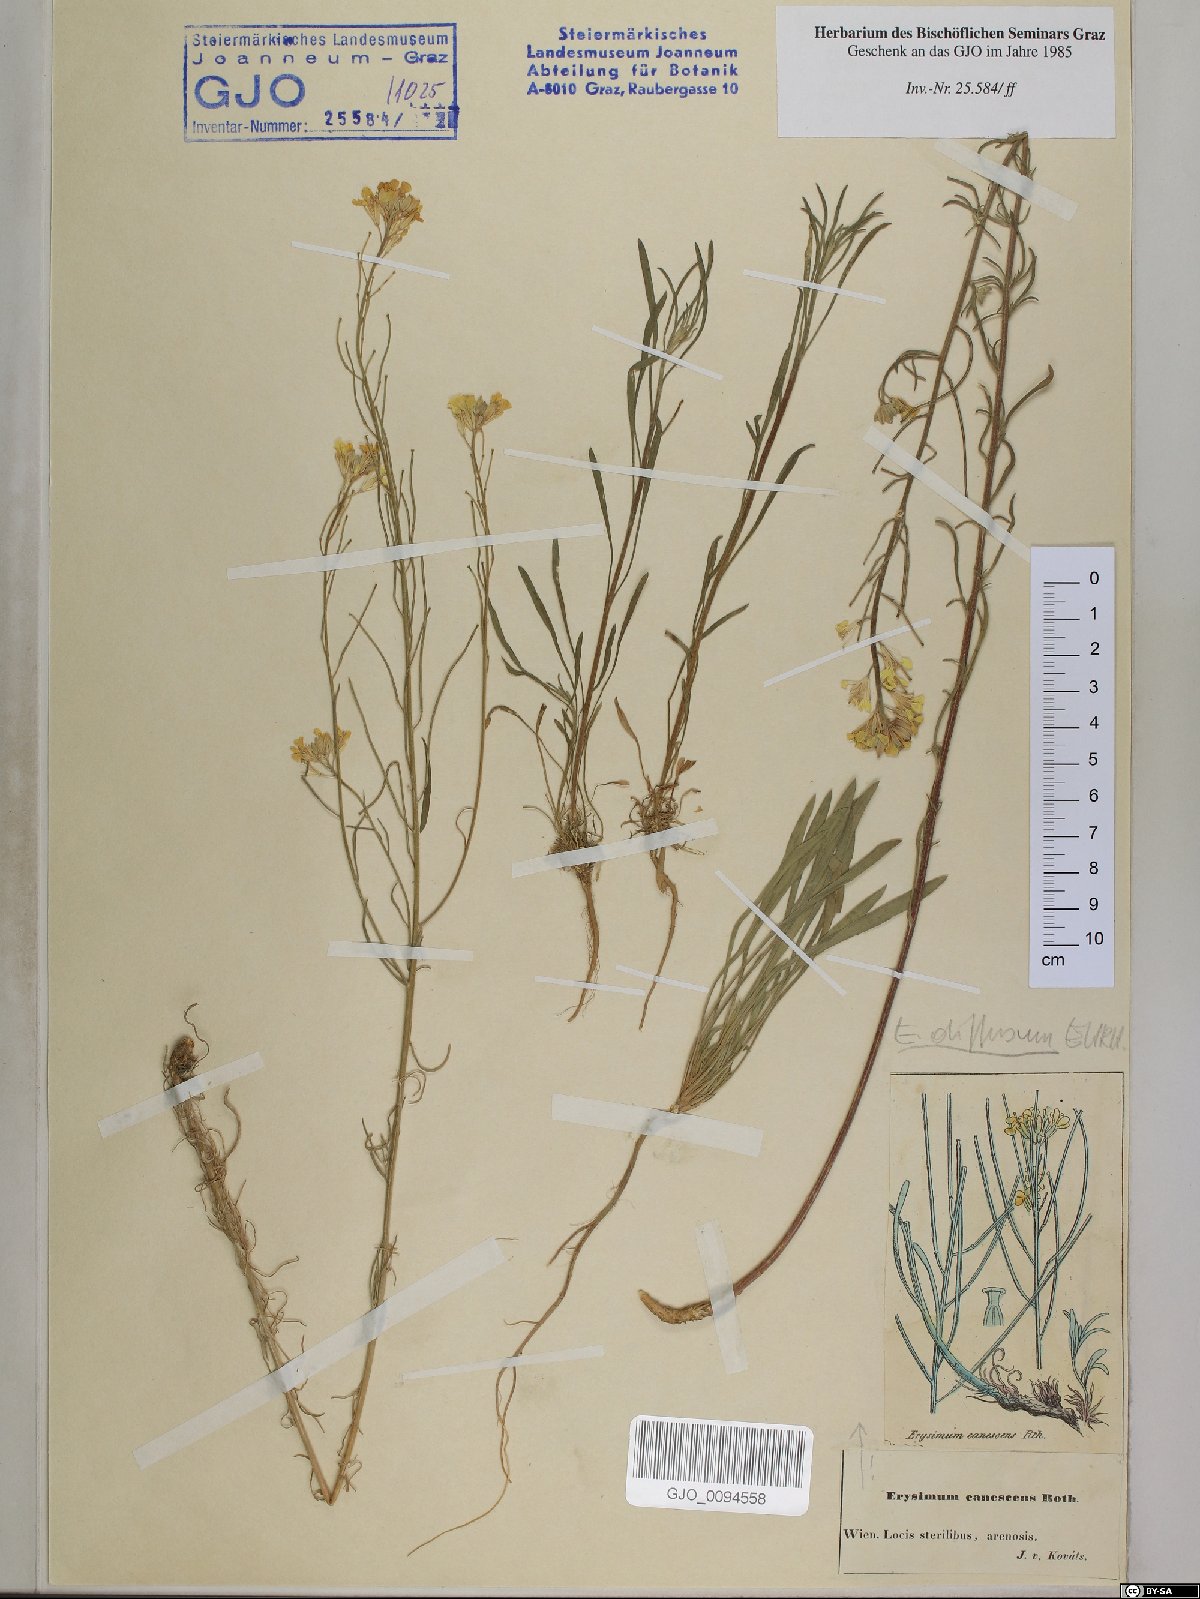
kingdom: Plantae
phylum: Tracheophyta
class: Magnoliopsida
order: Brassicales
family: Brassicaceae
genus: Erysimum
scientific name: Erysimum canescens
